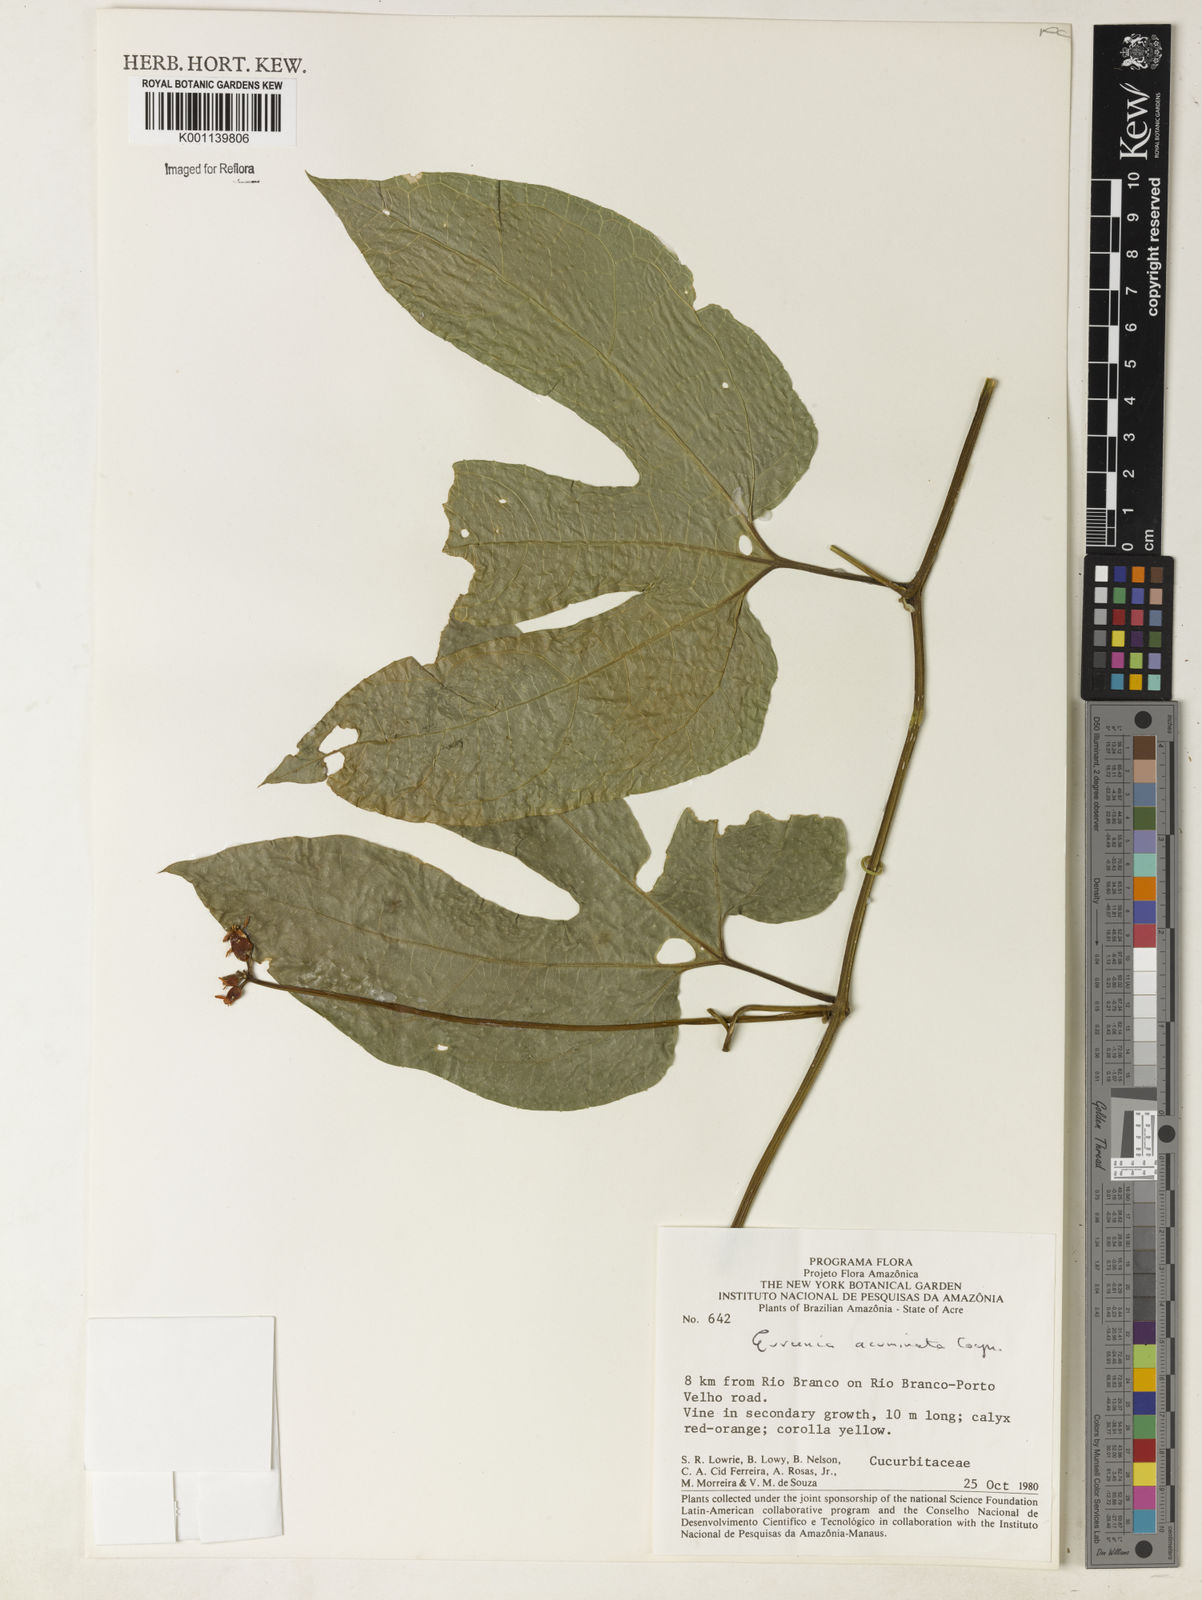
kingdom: Plantae
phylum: Tracheophyta
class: Magnoliopsida
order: Cucurbitales
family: Cucurbitaceae
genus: Gurania
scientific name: Gurania acuminata
